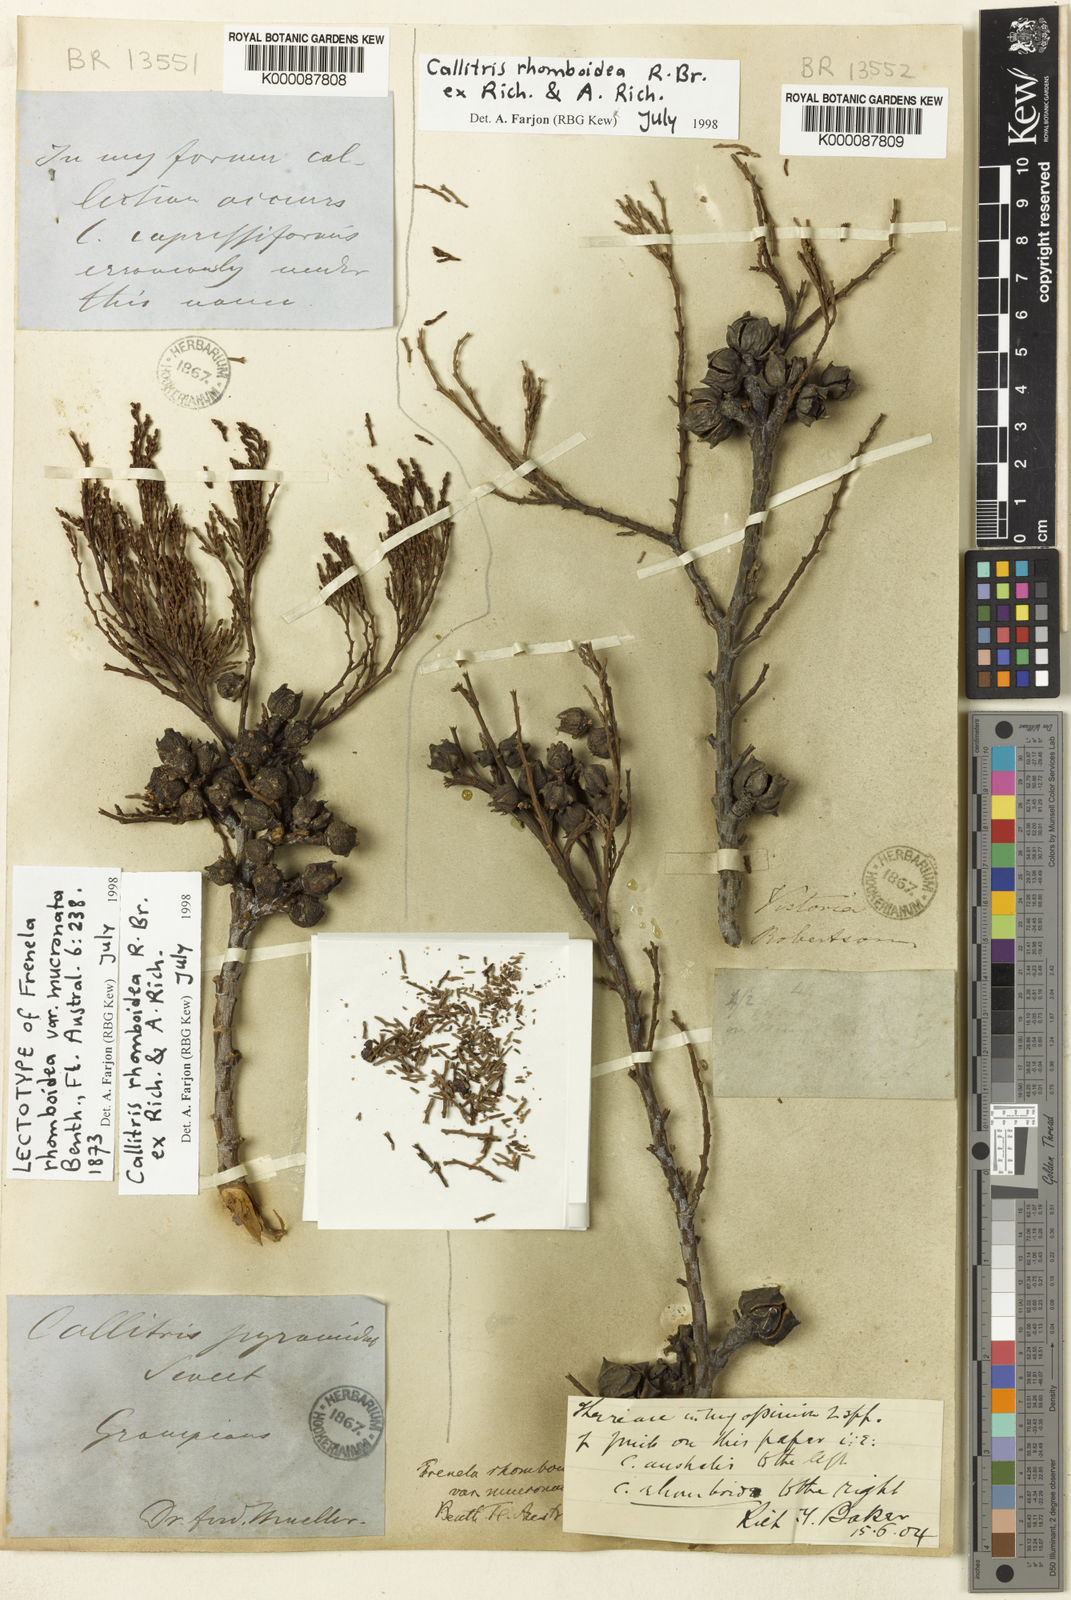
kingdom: Plantae
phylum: Tracheophyta
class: Pinopsida
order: Pinales
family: Cupressaceae
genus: Callitris
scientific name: Callitris rhomboidea
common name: Illawara mountain pine
